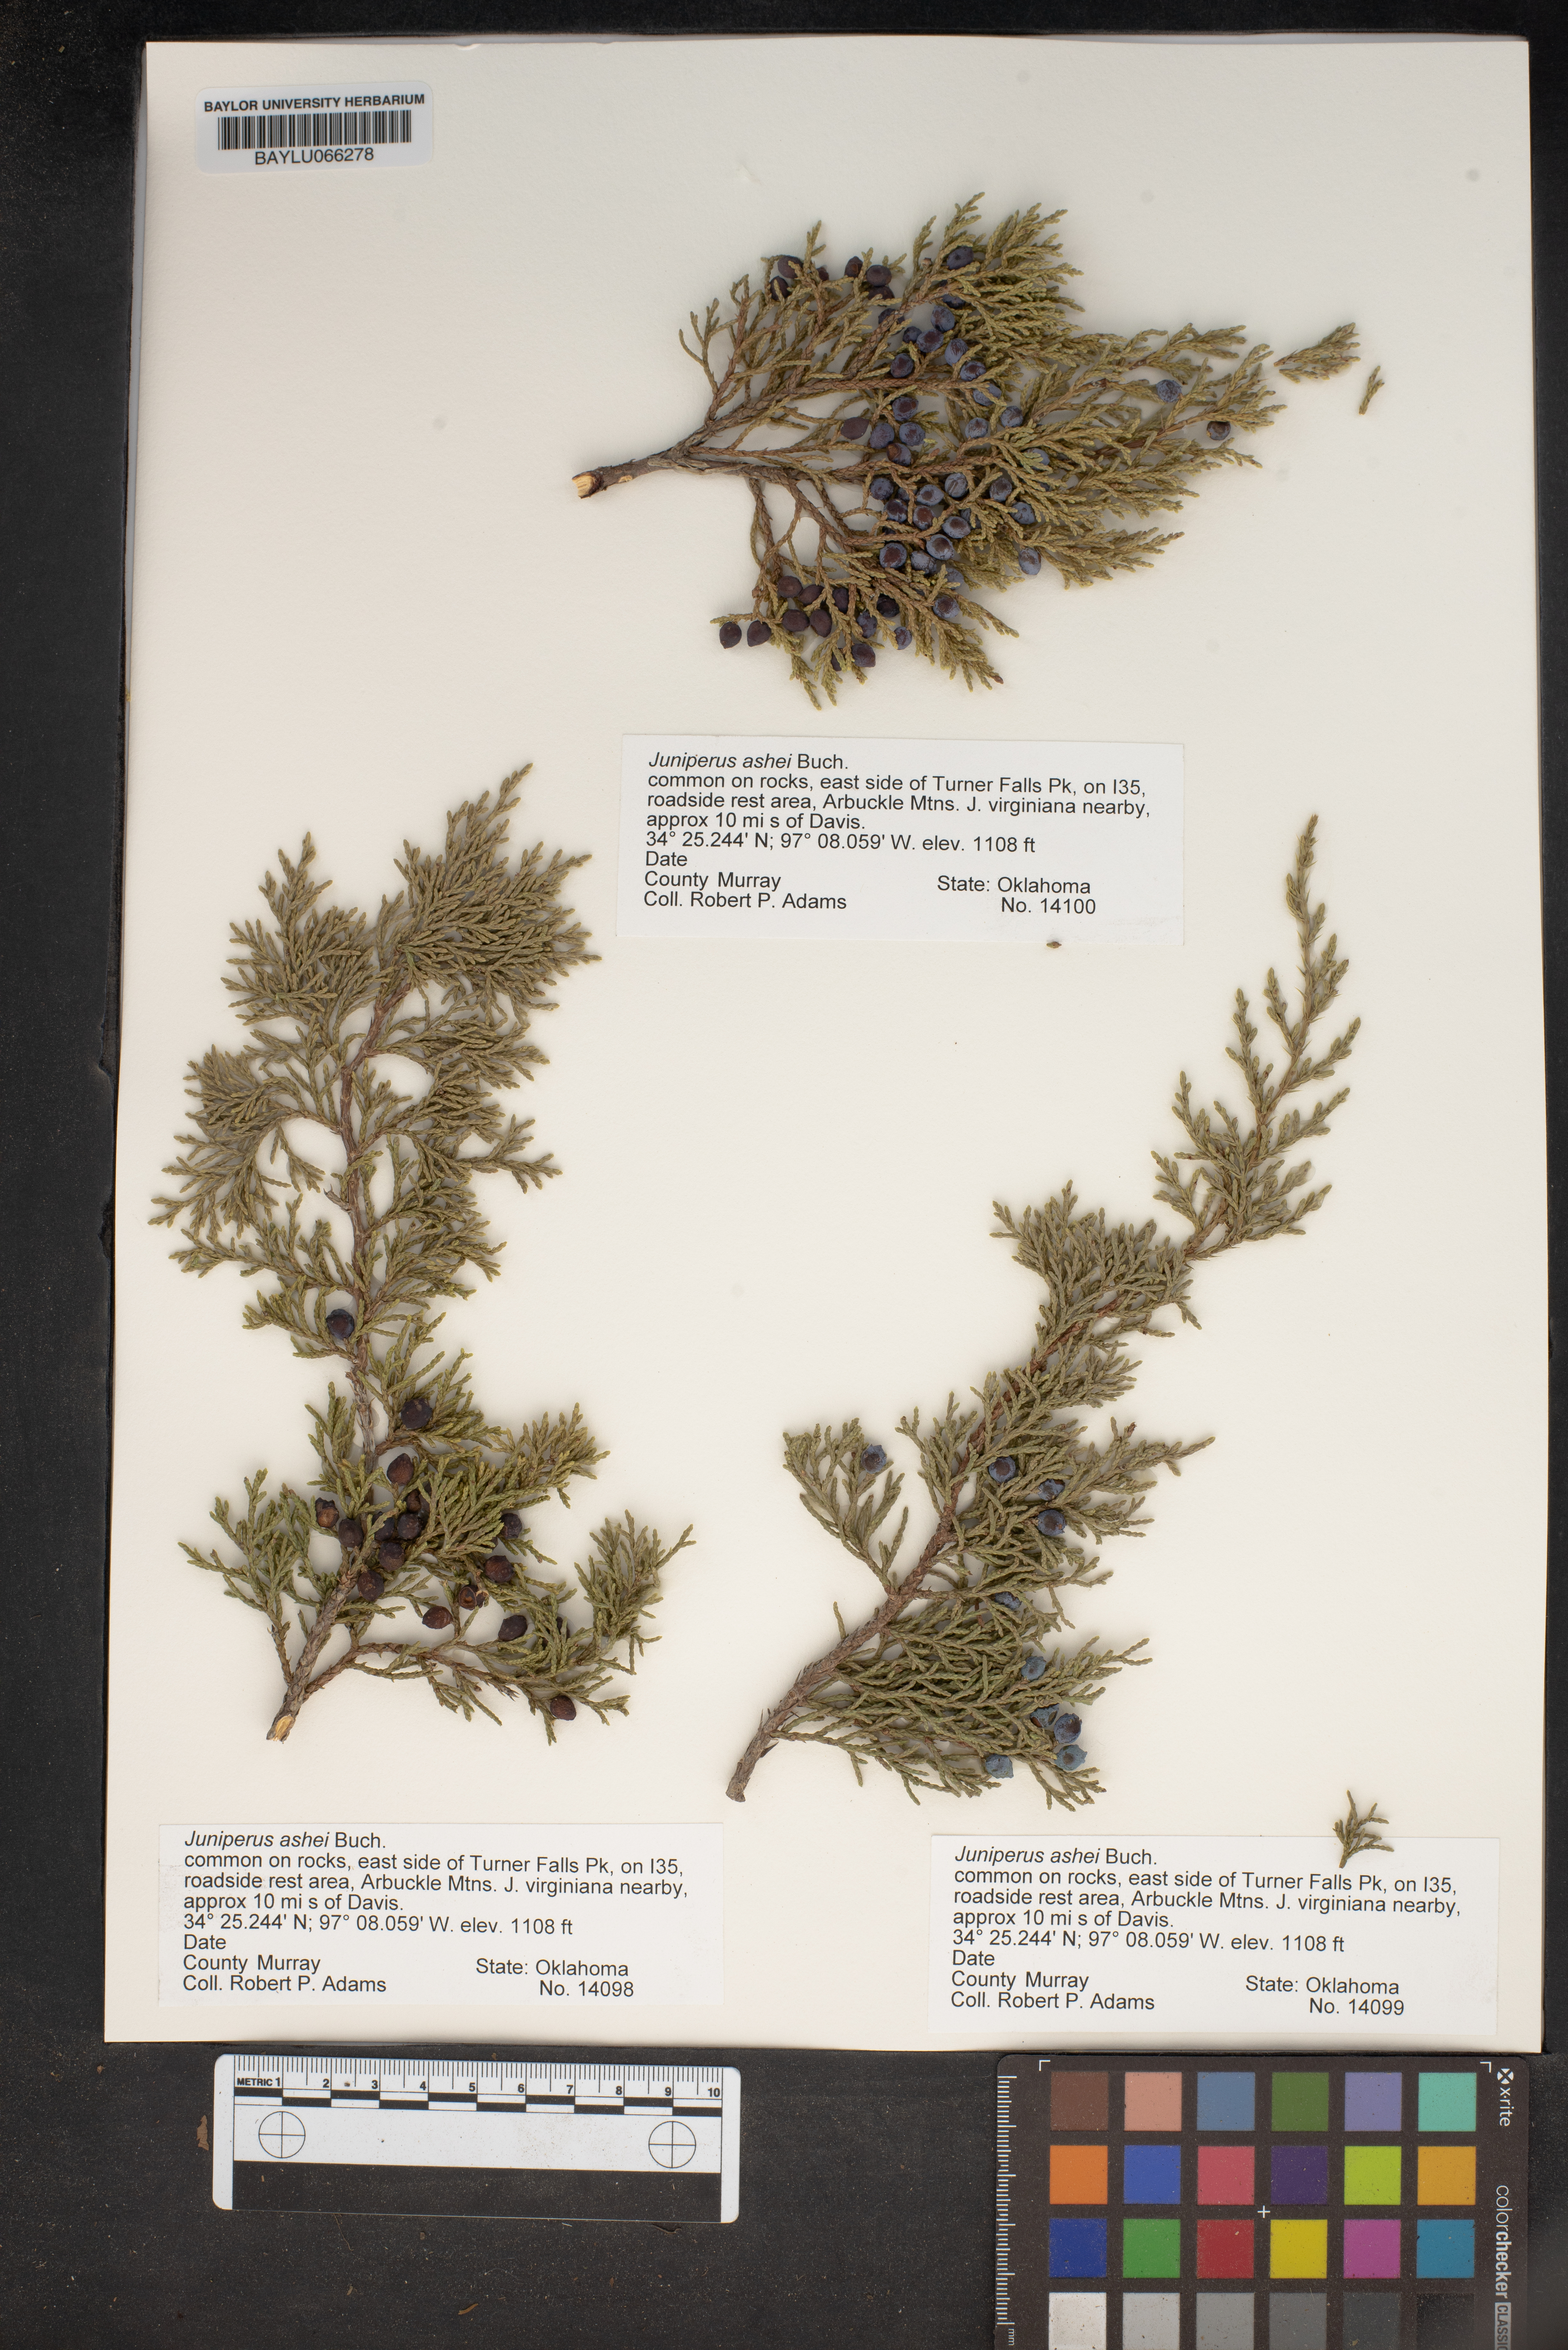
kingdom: Plantae
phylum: Tracheophyta
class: Pinopsida
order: Pinales
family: Cupressaceae
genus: Juniperus
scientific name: Juniperus ashei
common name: Mexican juniper
